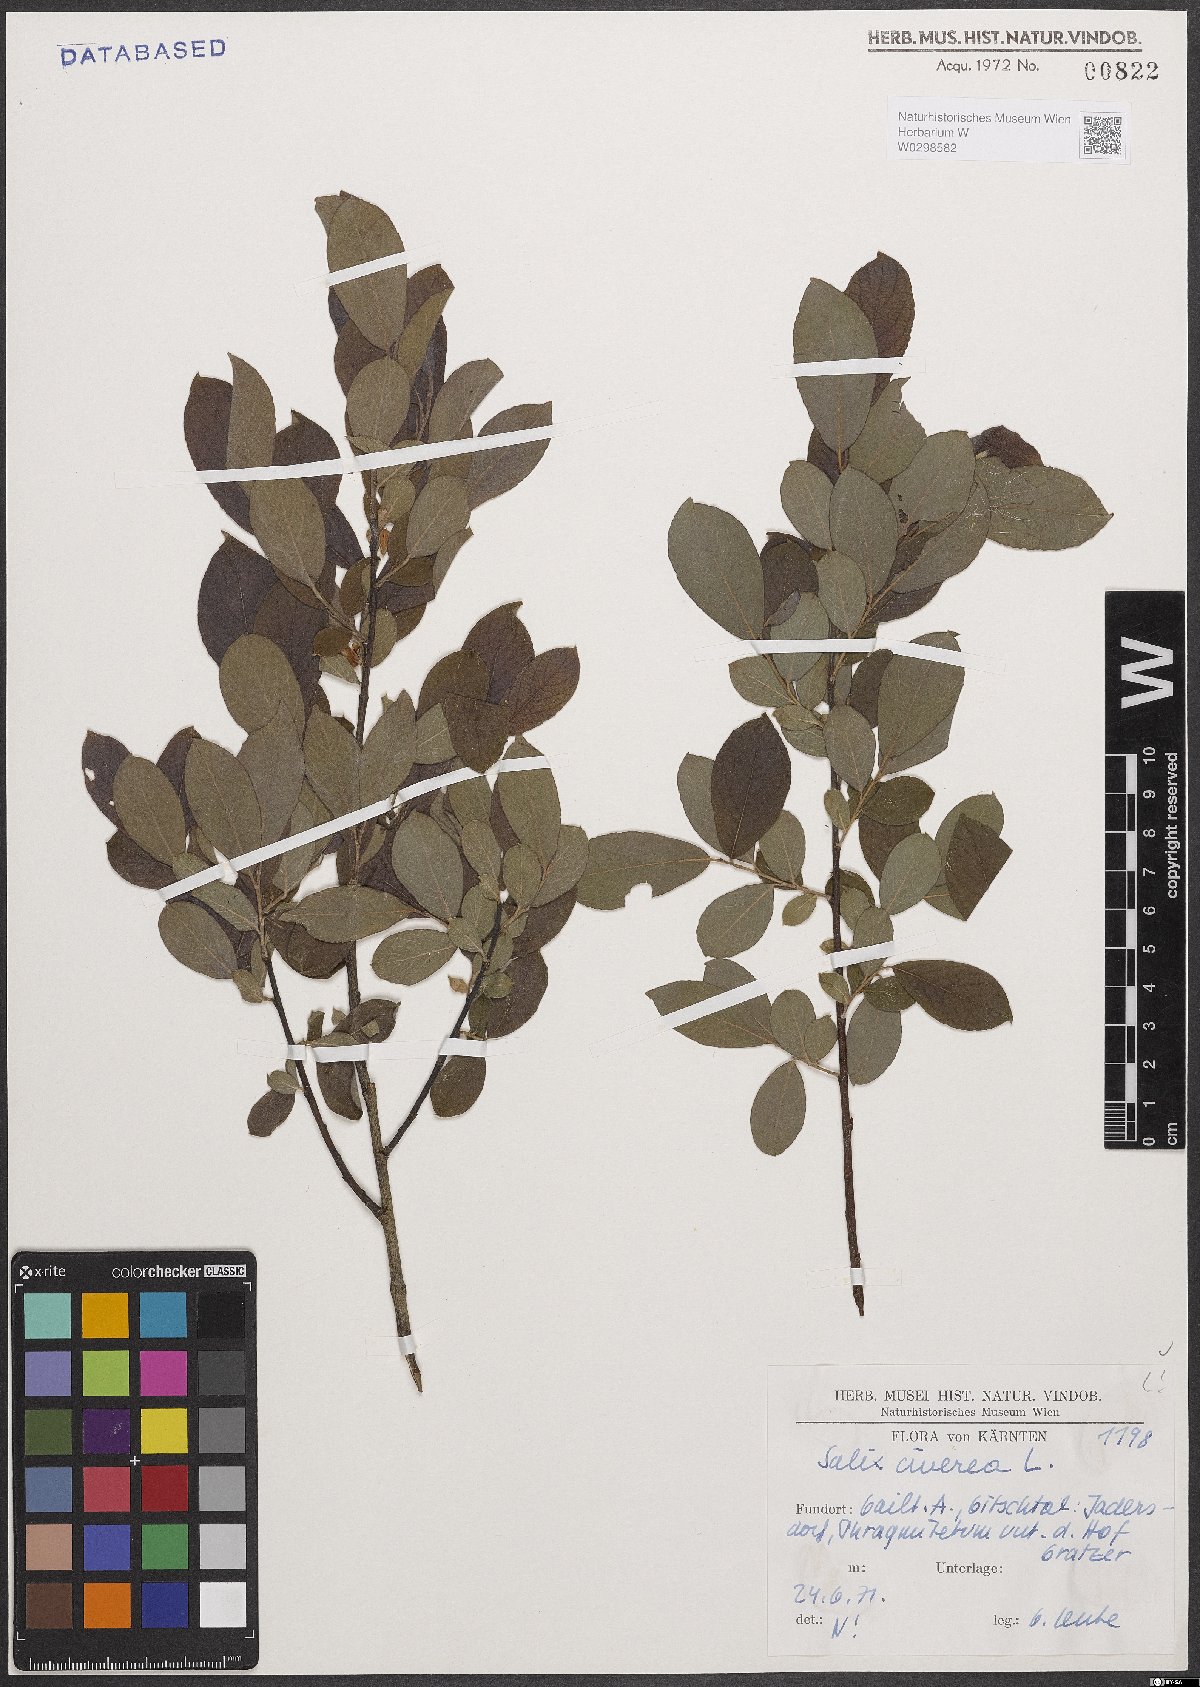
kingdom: Plantae
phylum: Tracheophyta
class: Magnoliopsida
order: Malpighiales
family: Salicaceae
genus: Salix
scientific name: Salix cinerea
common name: Common sallow
